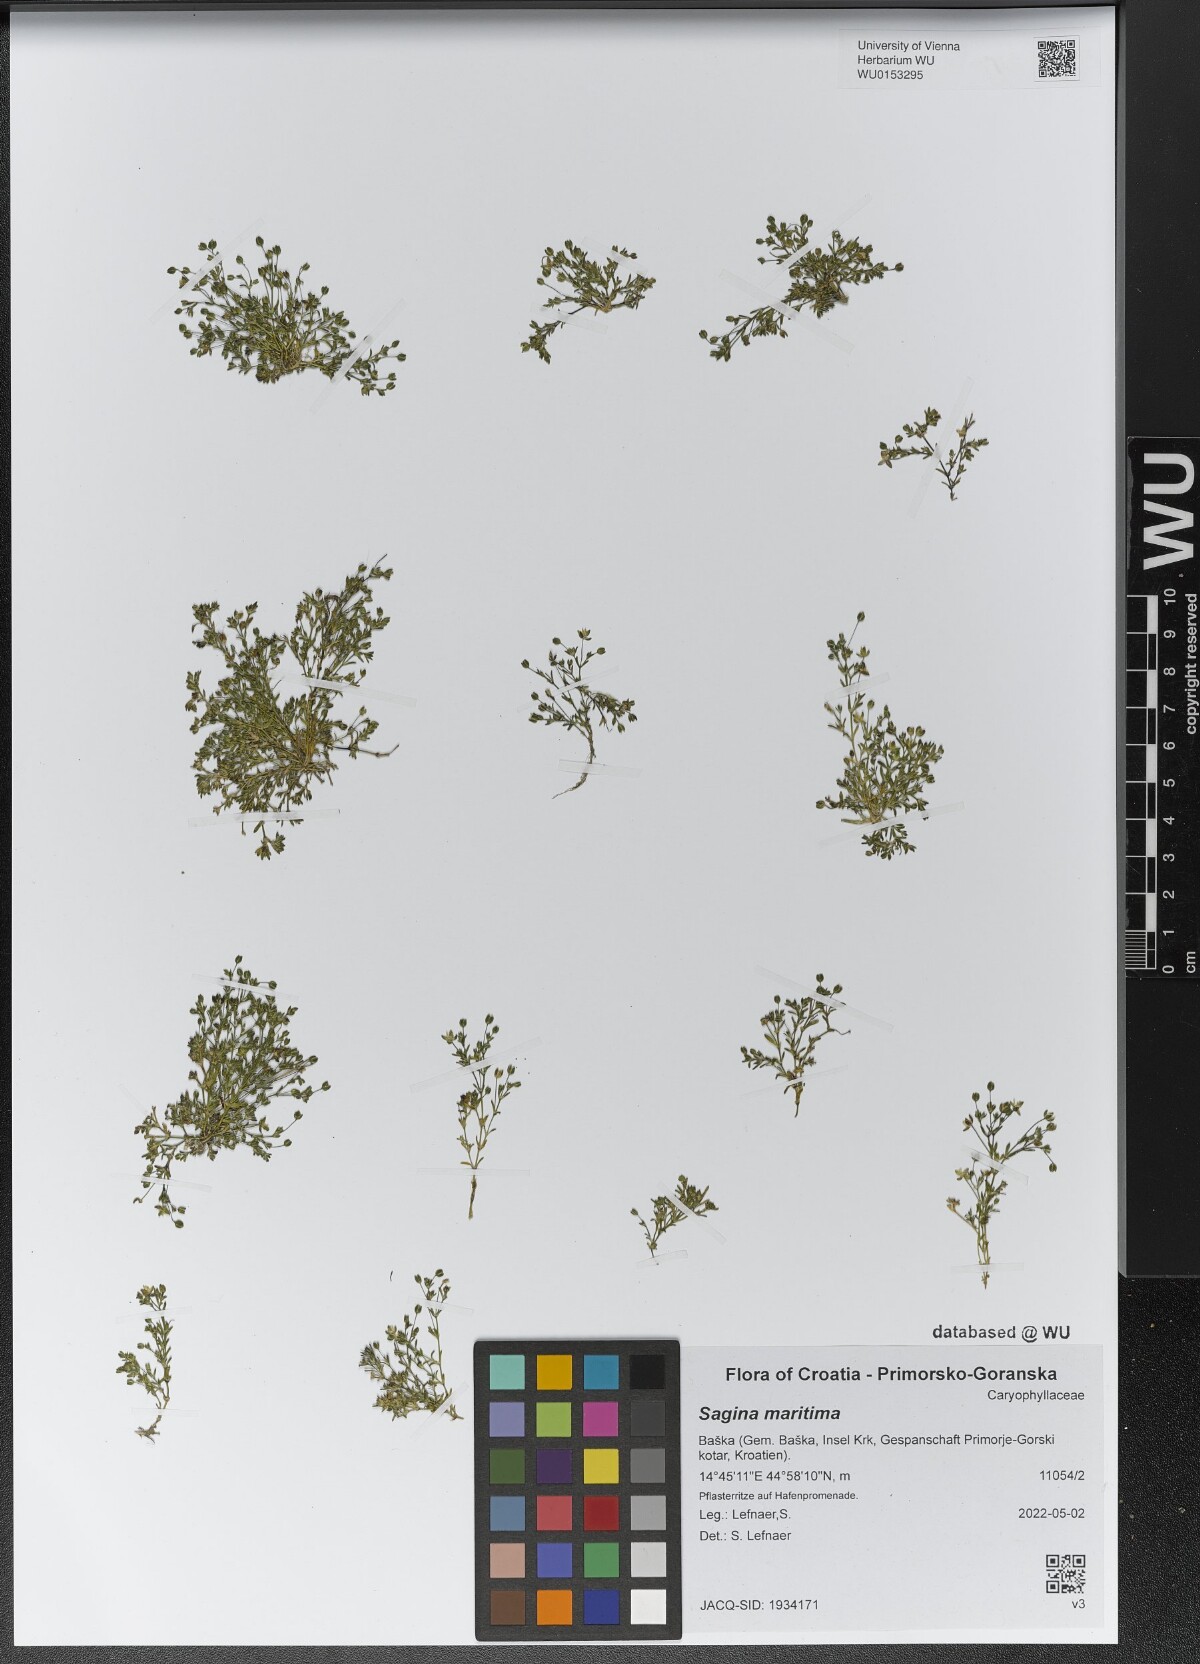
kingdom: Plantae
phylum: Tracheophyta
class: Magnoliopsida
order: Caryophyllales
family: Caryophyllaceae
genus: Sagina
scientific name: Sagina maritima
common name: Sea pearlwort
